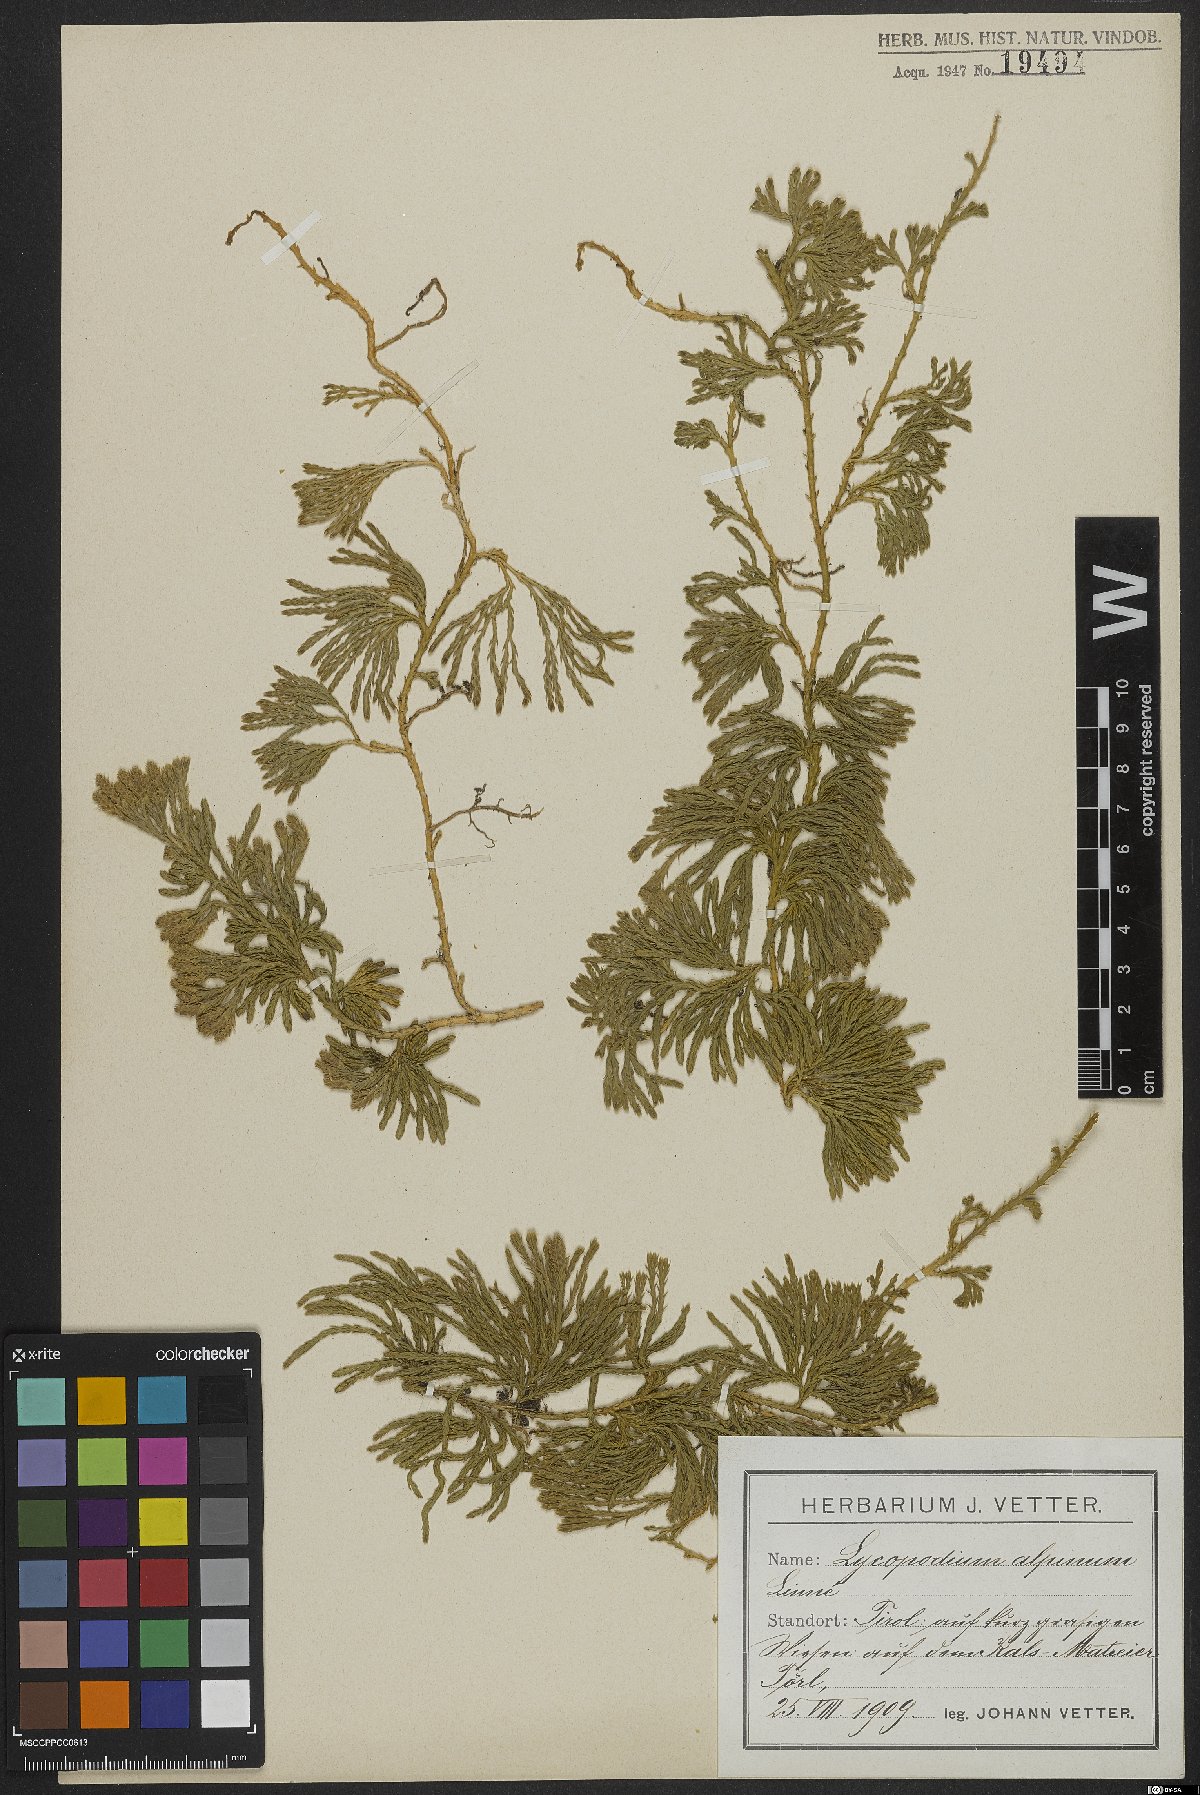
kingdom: Plantae
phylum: Tracheophyta
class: Lycopodiopsida
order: Lycopodiales
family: Lycopodiaceae
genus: Diphasiastrum
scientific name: Diphasiastrum alpinum
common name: Alpine clubmoss
